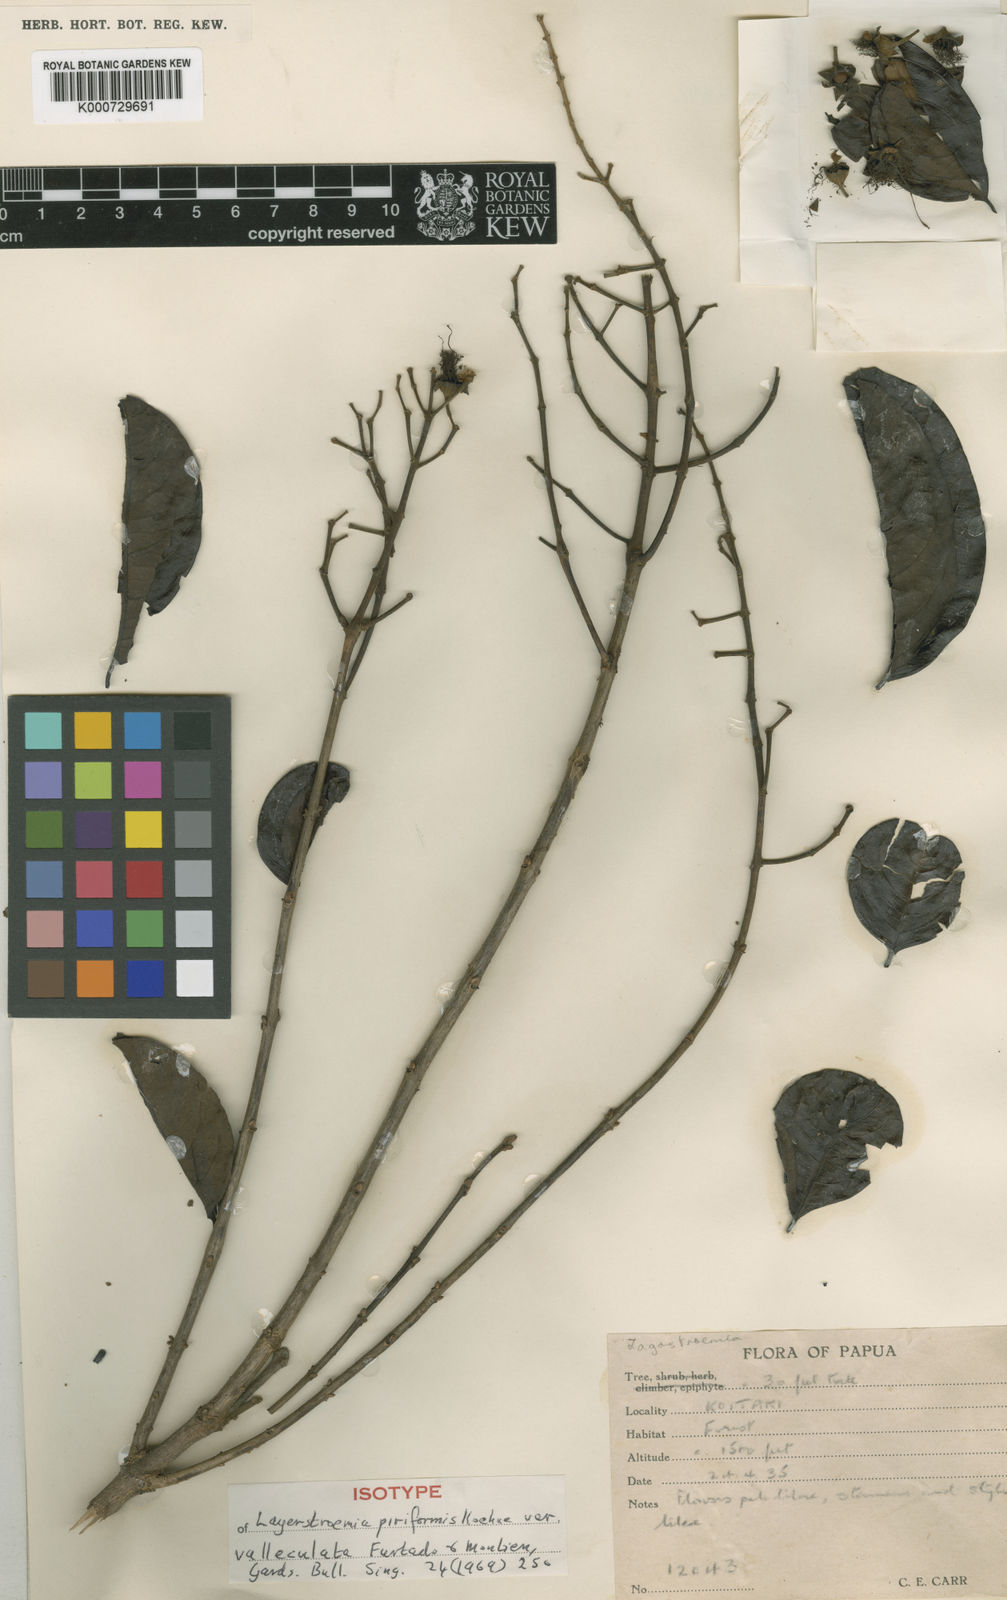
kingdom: Plantae
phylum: Tracheophyta
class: Magnoliopsida
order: Myrtales
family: Lythraceae
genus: Lagerstroemia
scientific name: Lagerstroemia celebica
